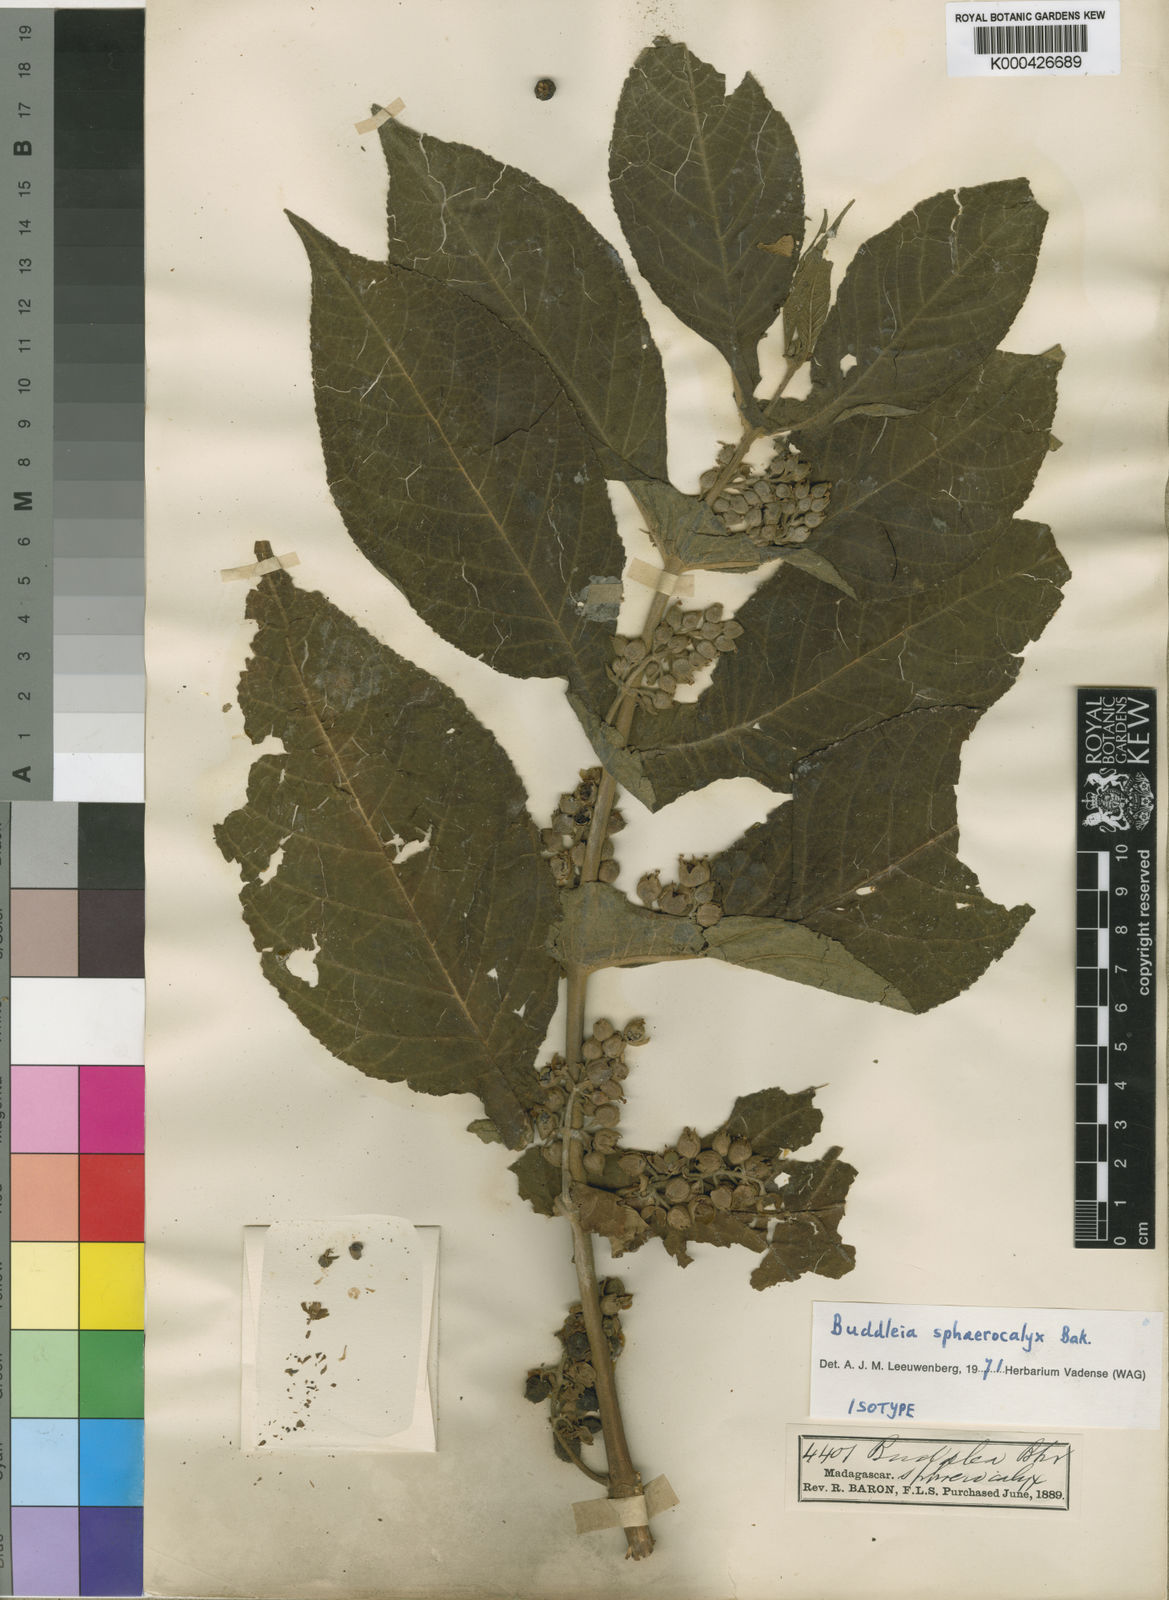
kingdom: Plantae
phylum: Tracheophyta
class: Magnoliopsida
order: Lamiales
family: Scrophulariaceae
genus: Buddleja
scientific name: Buddleja sphaerocalyx
